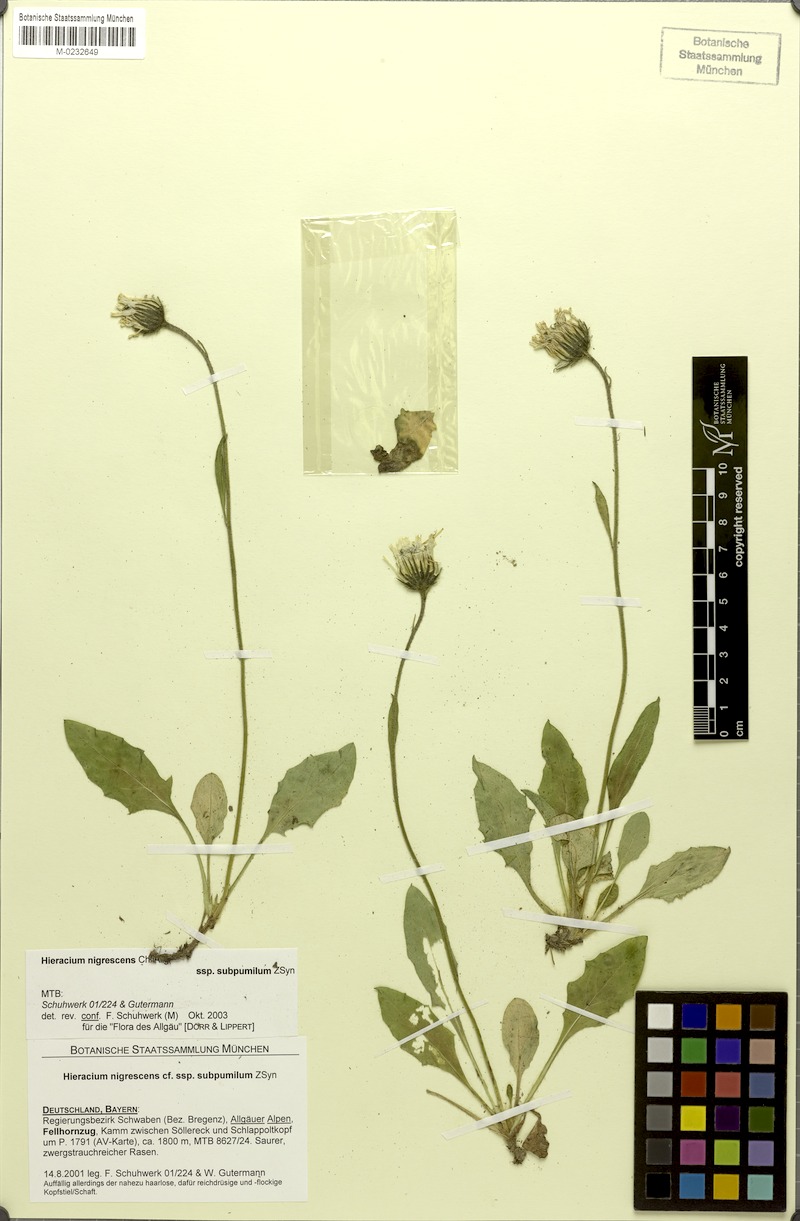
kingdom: Plantae
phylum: Tracheophyta
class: Magnoliopsida
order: Asterales
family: Asteraceae
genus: Hieracium
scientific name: Hieracium nigrescens
